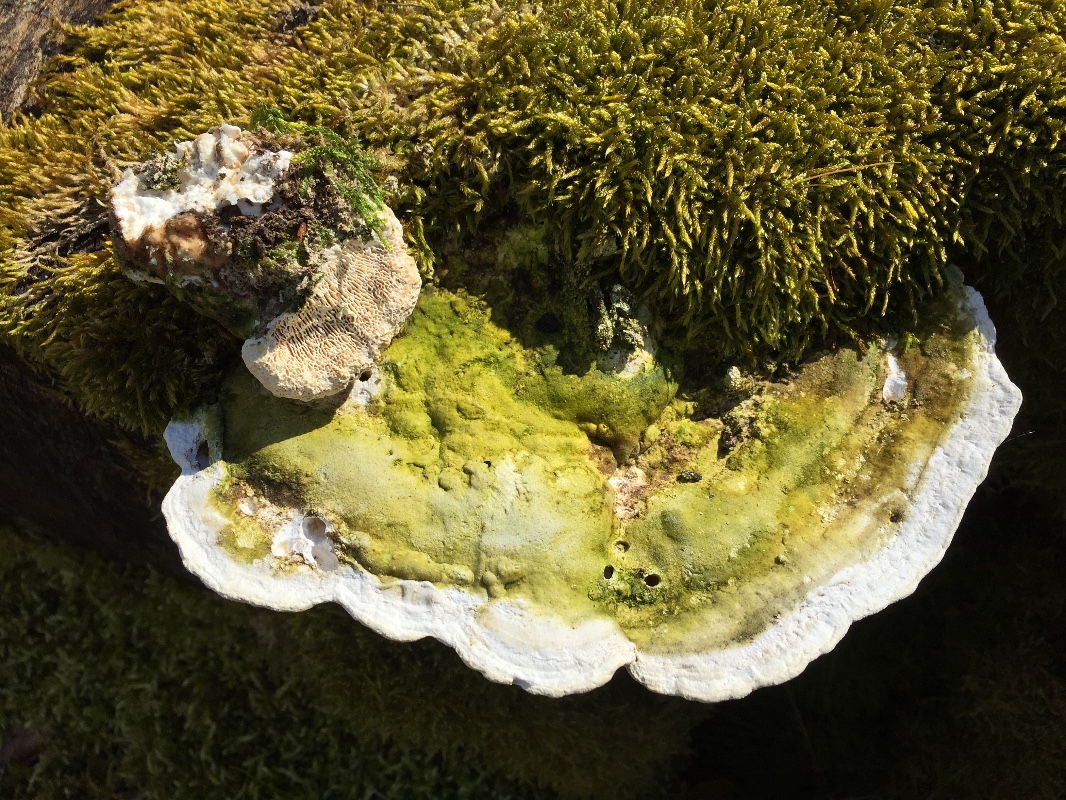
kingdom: Fungi
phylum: Basidiomycota
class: Agaricomycetes
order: Polyporales
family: Polyporaceae
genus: Trametes
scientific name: Trametes gibbosa
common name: puklet læderporesvamp
